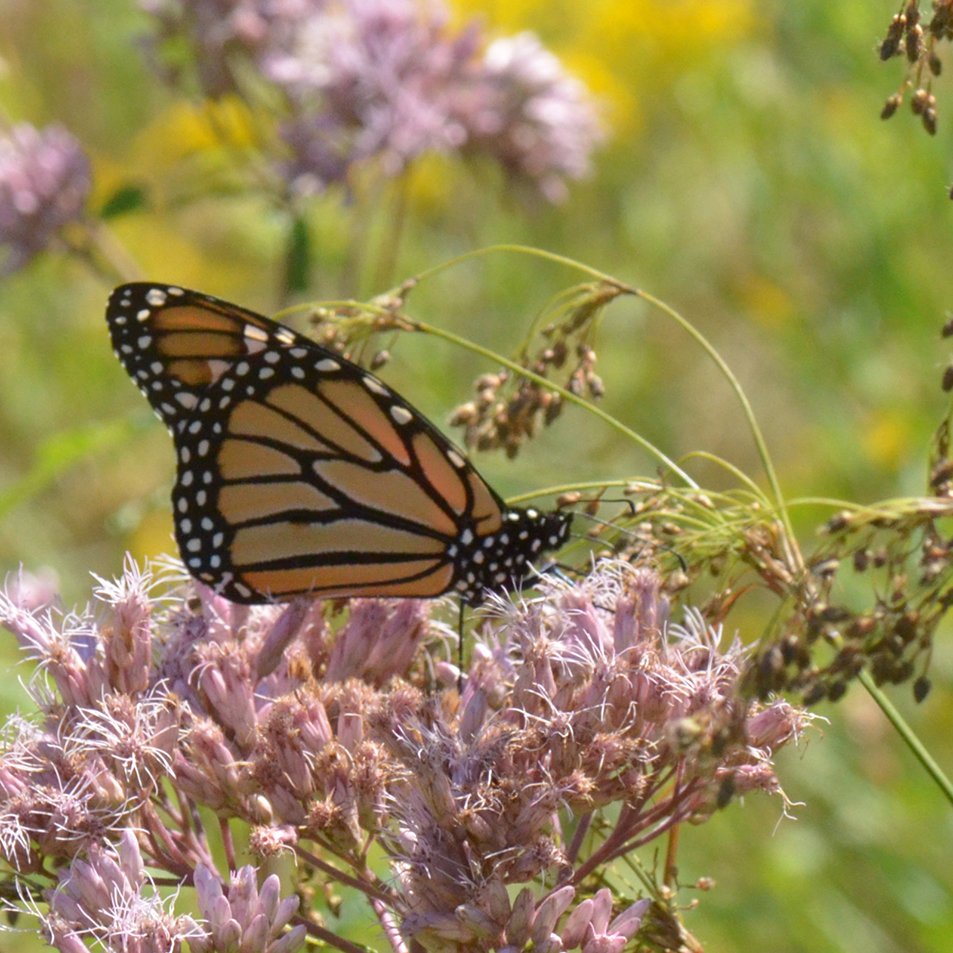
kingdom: Animalia
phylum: Arthropoda
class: Insecta
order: Lepidoptera
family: Nymphalidae
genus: Danaus
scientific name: Danaus plexippus
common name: Monarch
